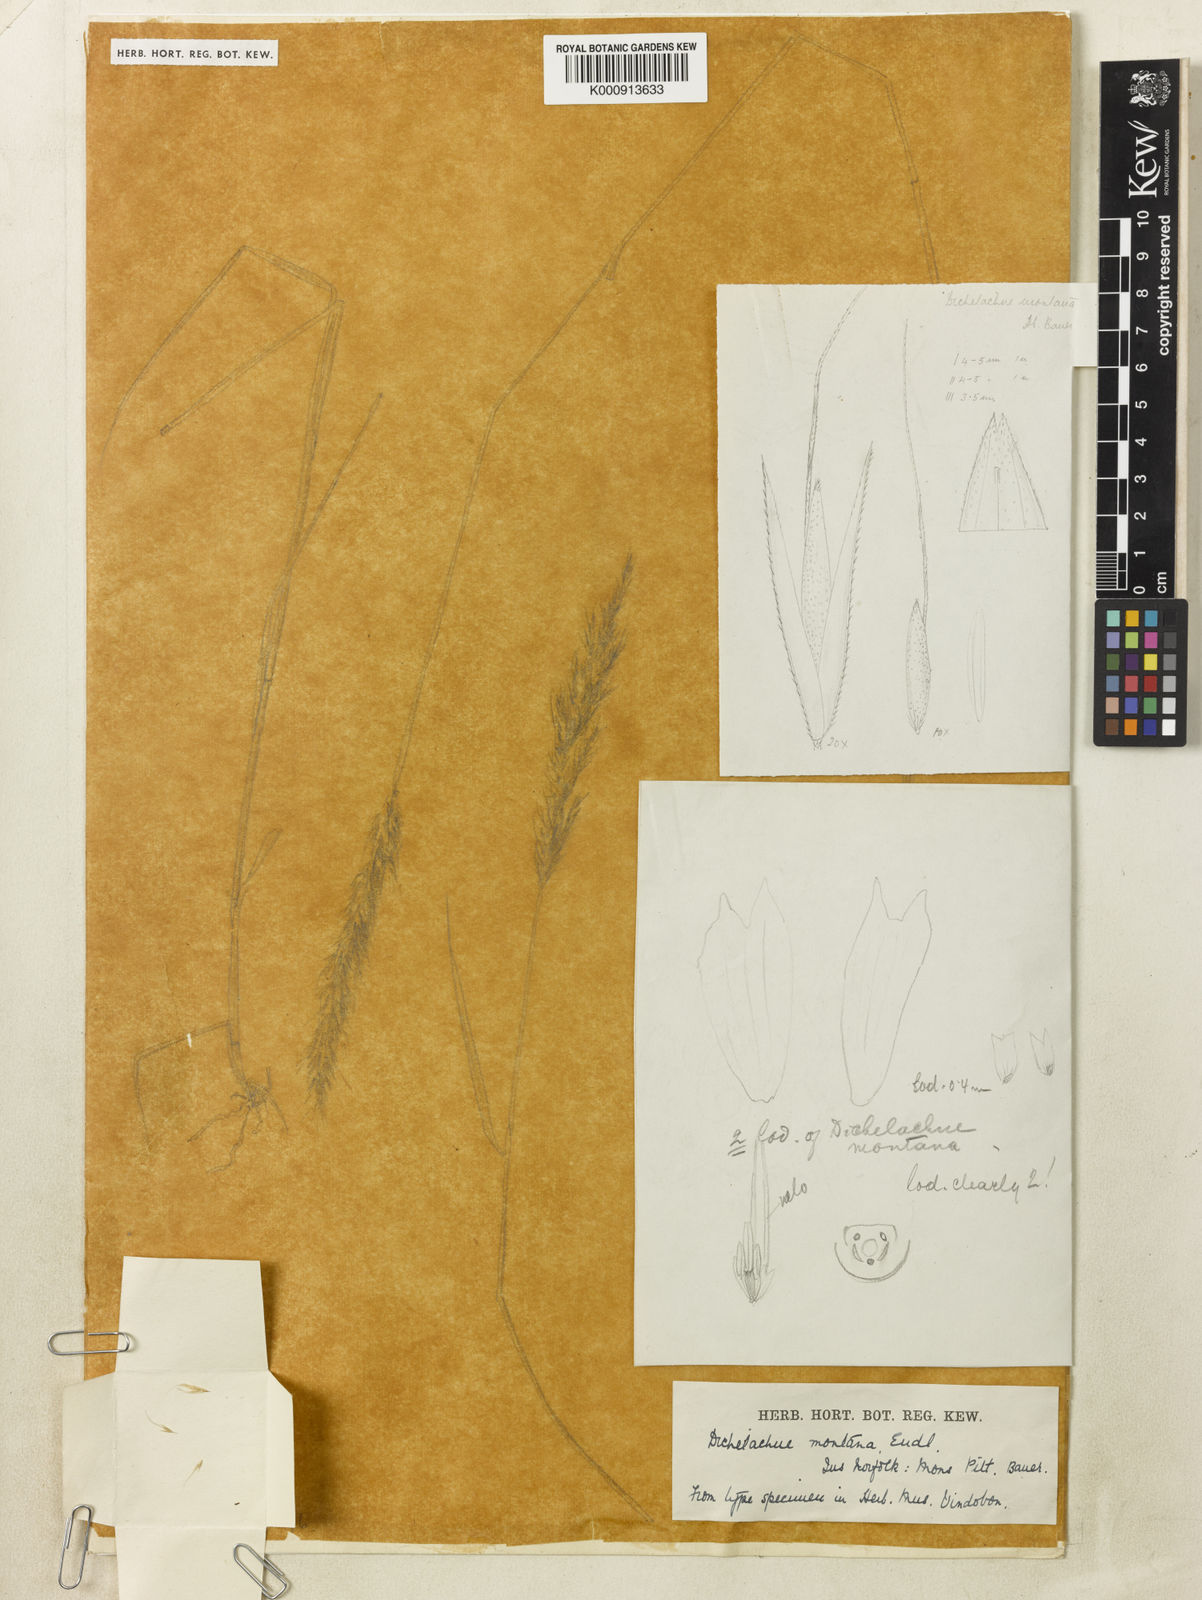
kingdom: Plantae
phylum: Tracheophyta
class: Liliopsida
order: Poales
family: Poaceae
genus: Dichelachne
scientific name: Dichelachne micrantha
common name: Plumegrass
